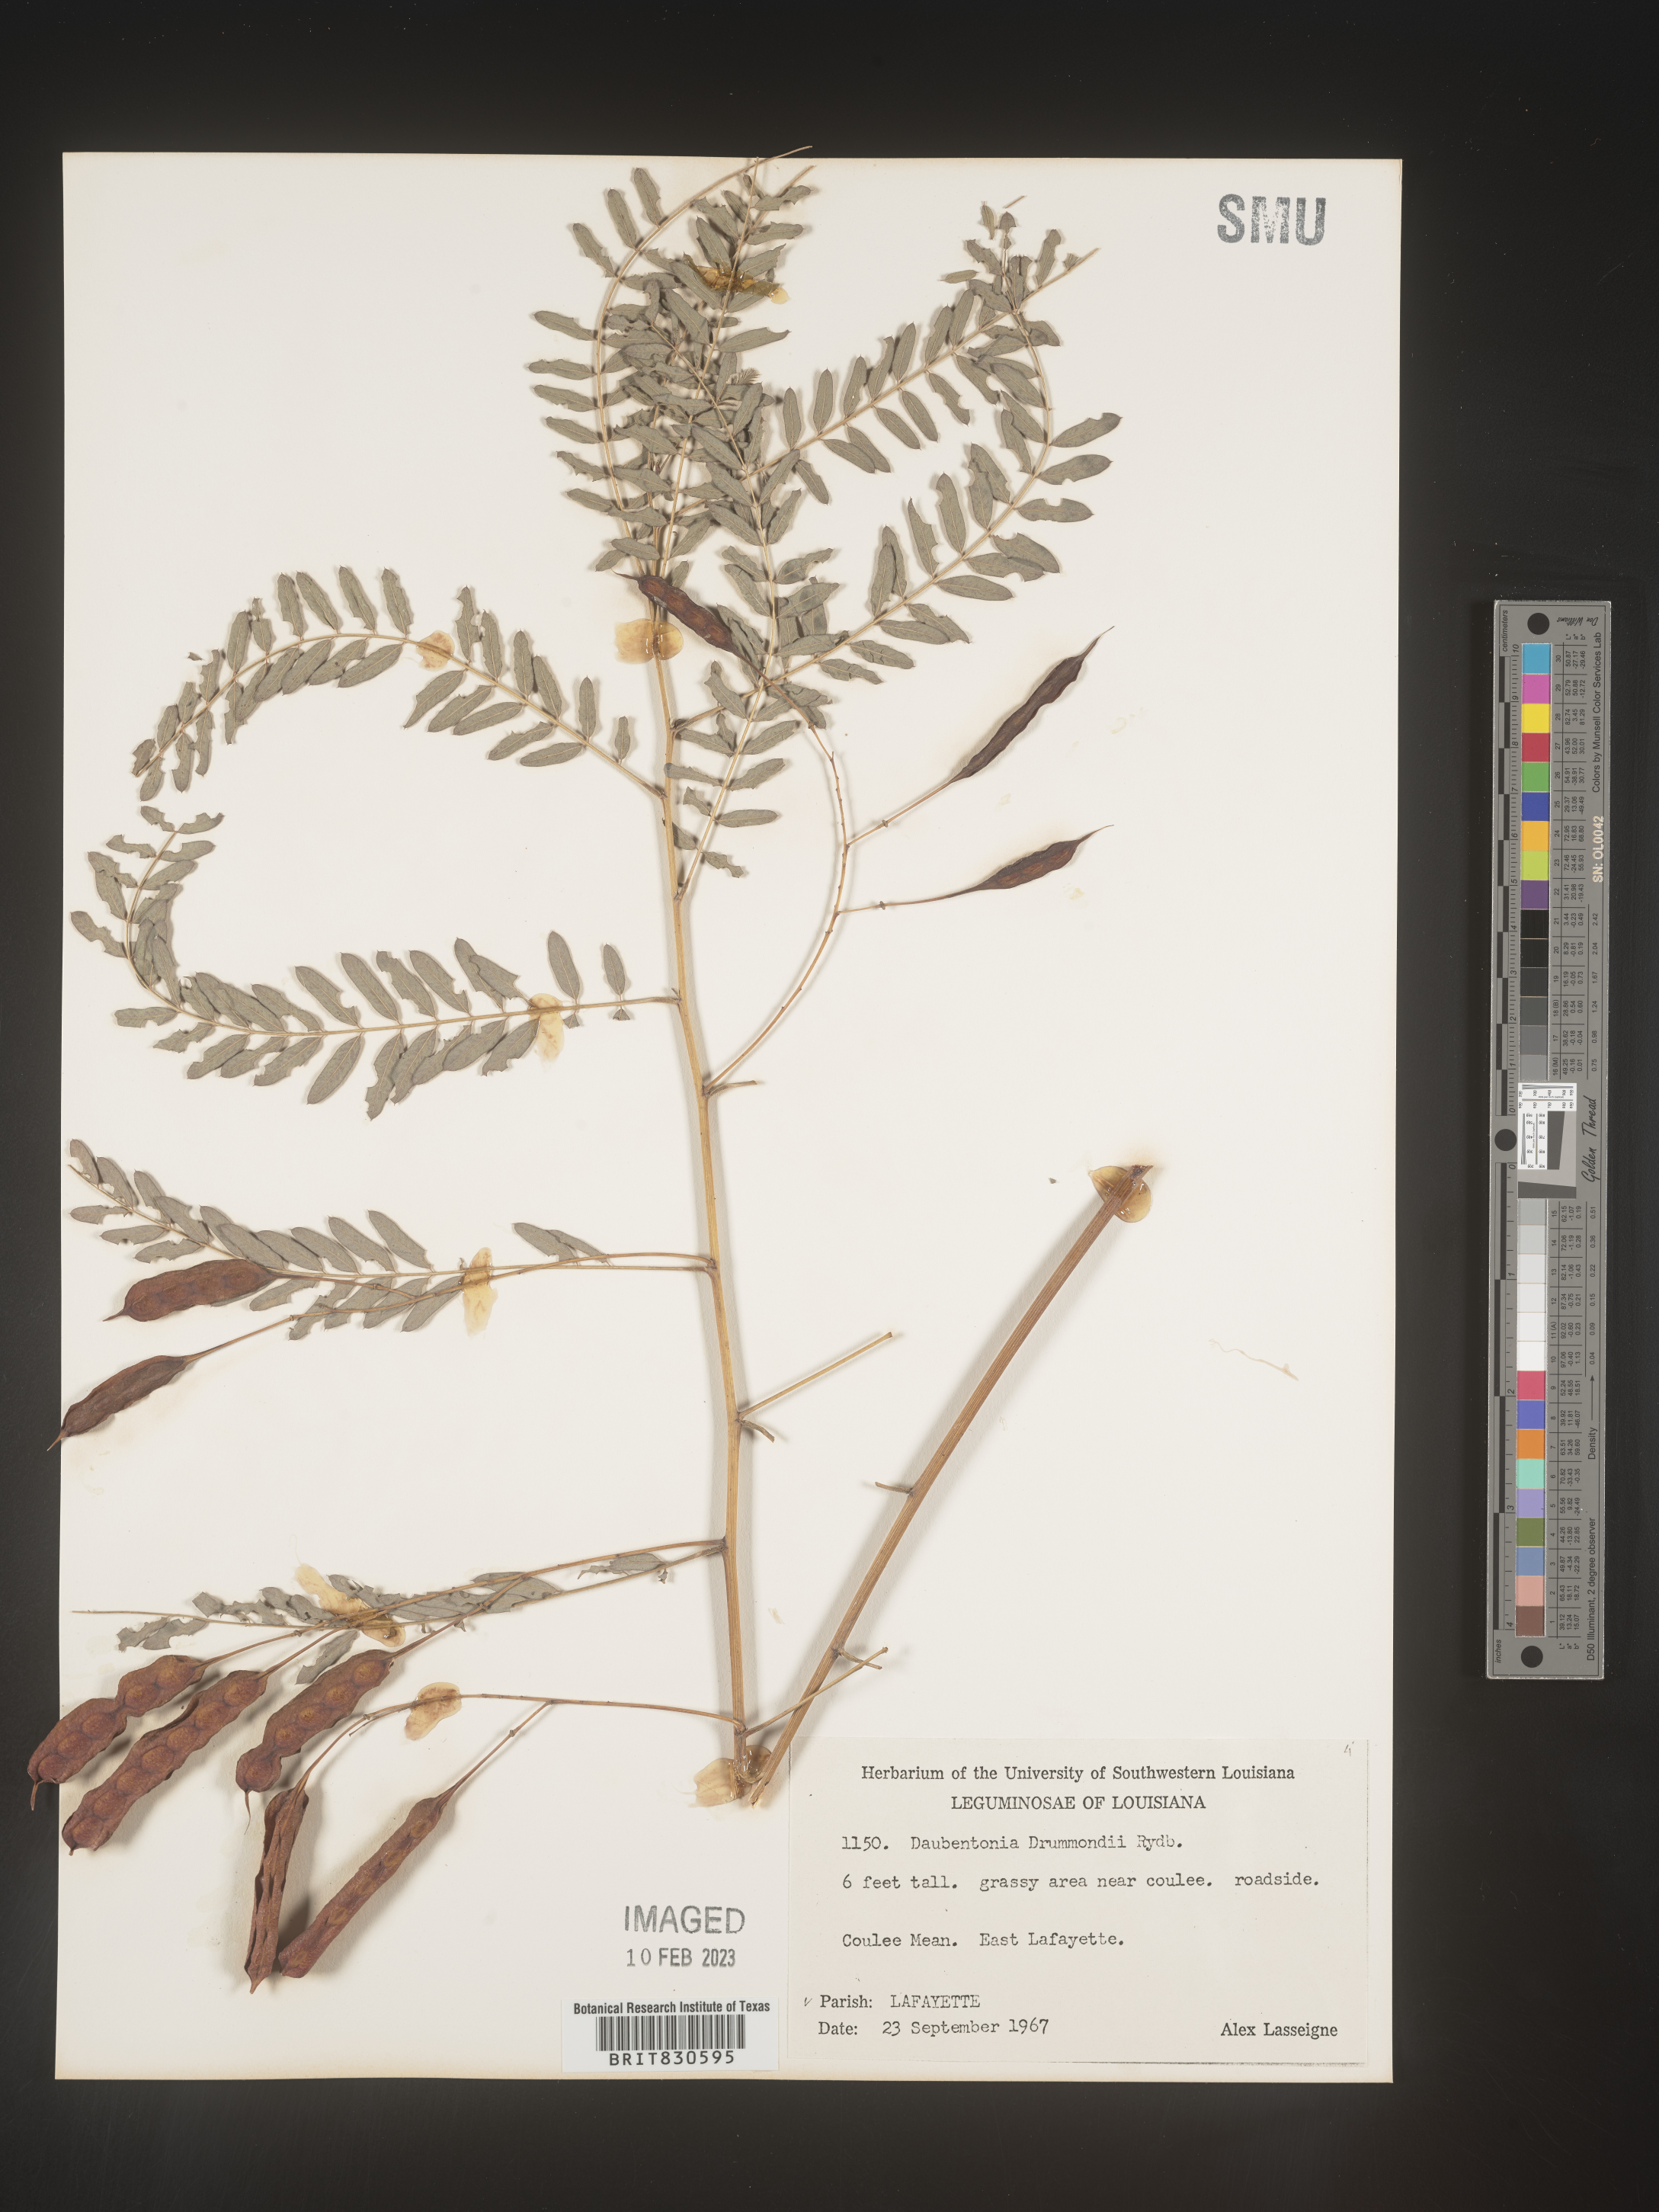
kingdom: Plantae
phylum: Tracheophyta
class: Magnoliopsida
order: Fabales
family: Fabaceae
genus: Sesbania
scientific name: Sesbania drummondii
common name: Poison-bean
